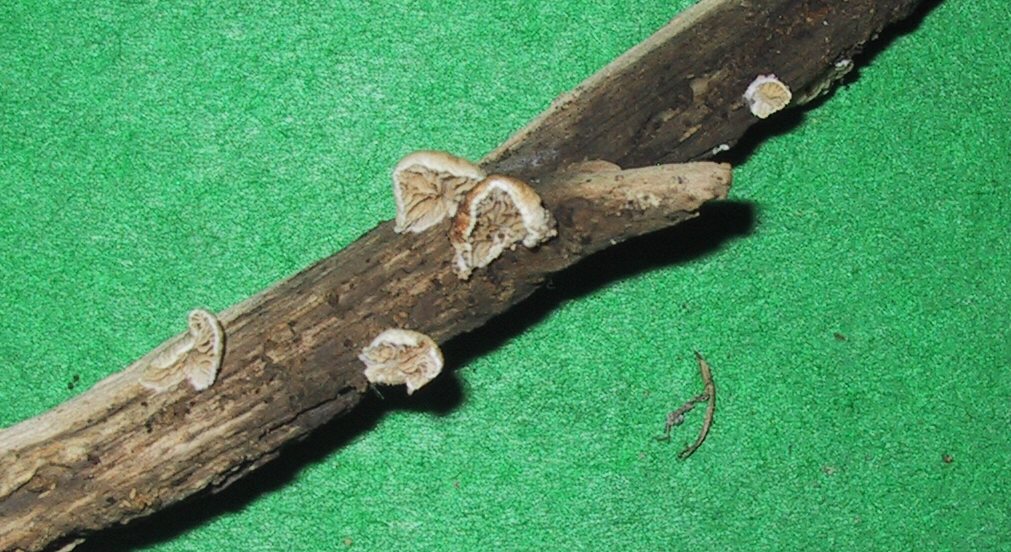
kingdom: Fungi
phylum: Basidiomycota
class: Agaricomycetes
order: Agaricales
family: Crepidotaceae
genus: Crepidotus
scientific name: Crepidotus cesatii
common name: almindelig muslingesvamp
